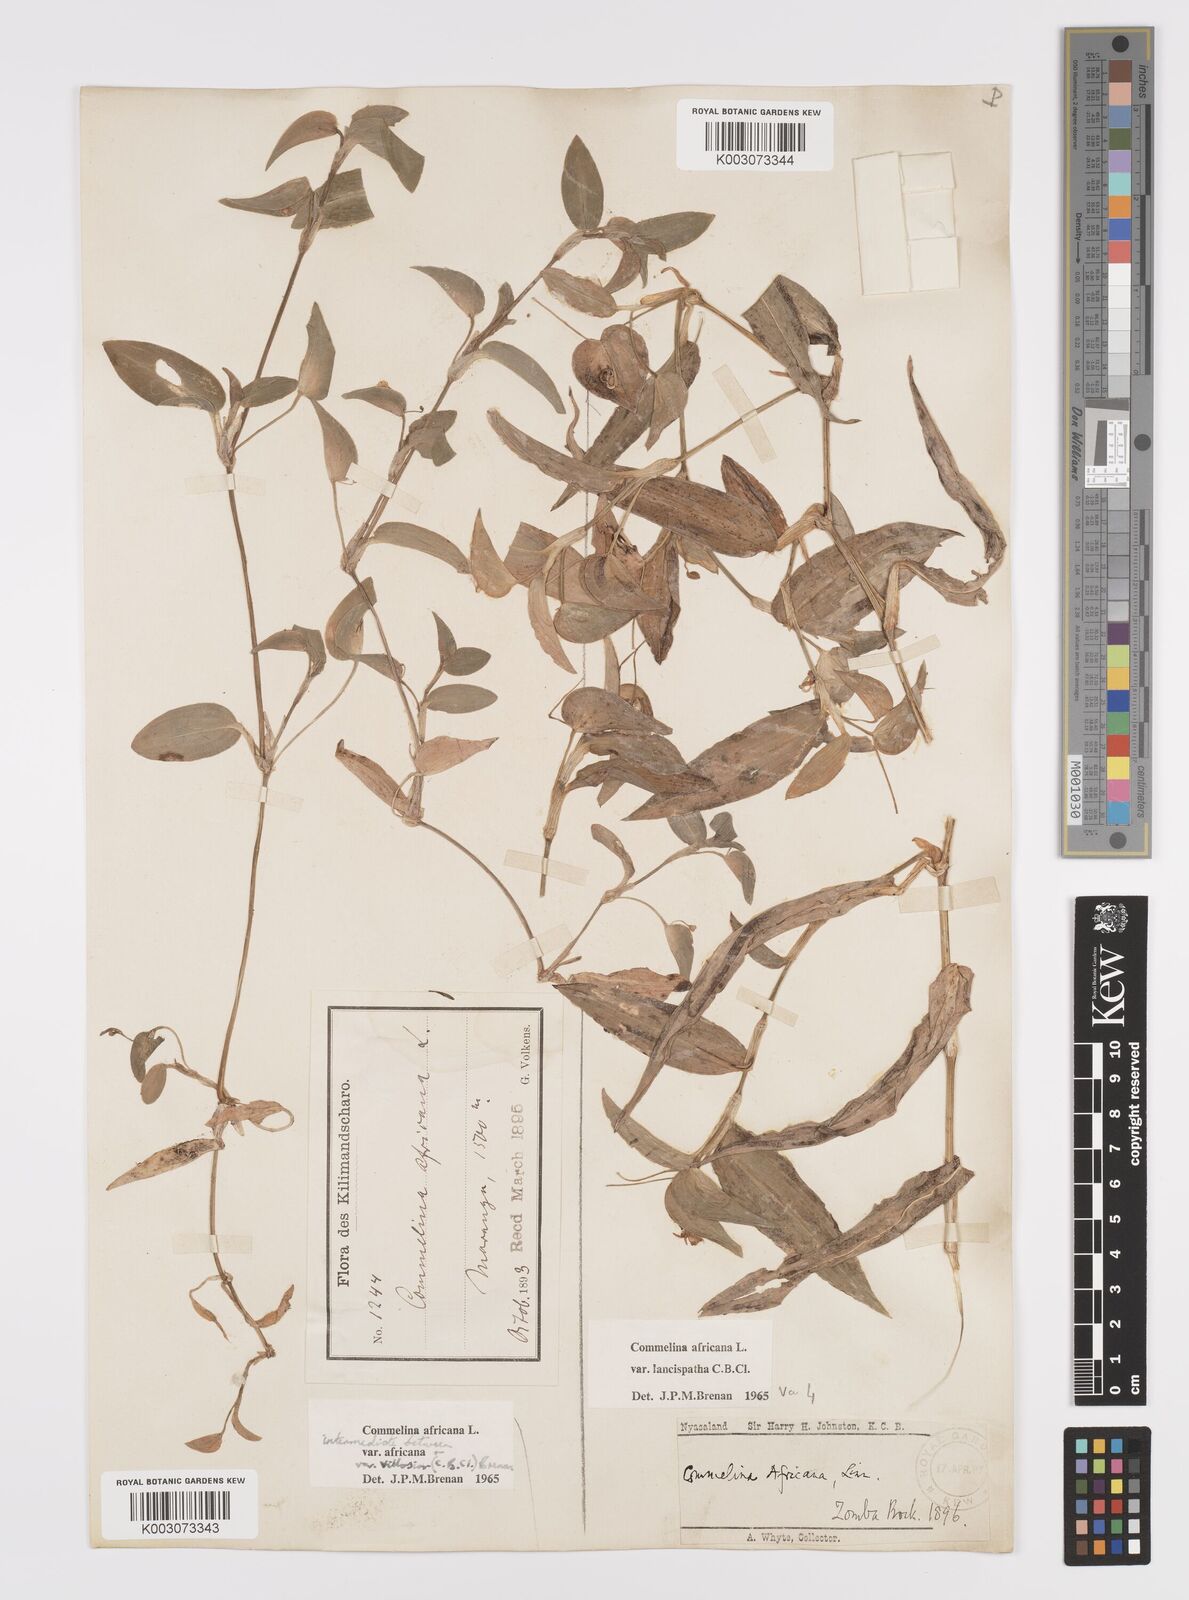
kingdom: Plantae
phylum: Tracheophyta
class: Liliopsida
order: Commelinales
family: Commelinaceae
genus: Commelina
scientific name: Commelina africana
